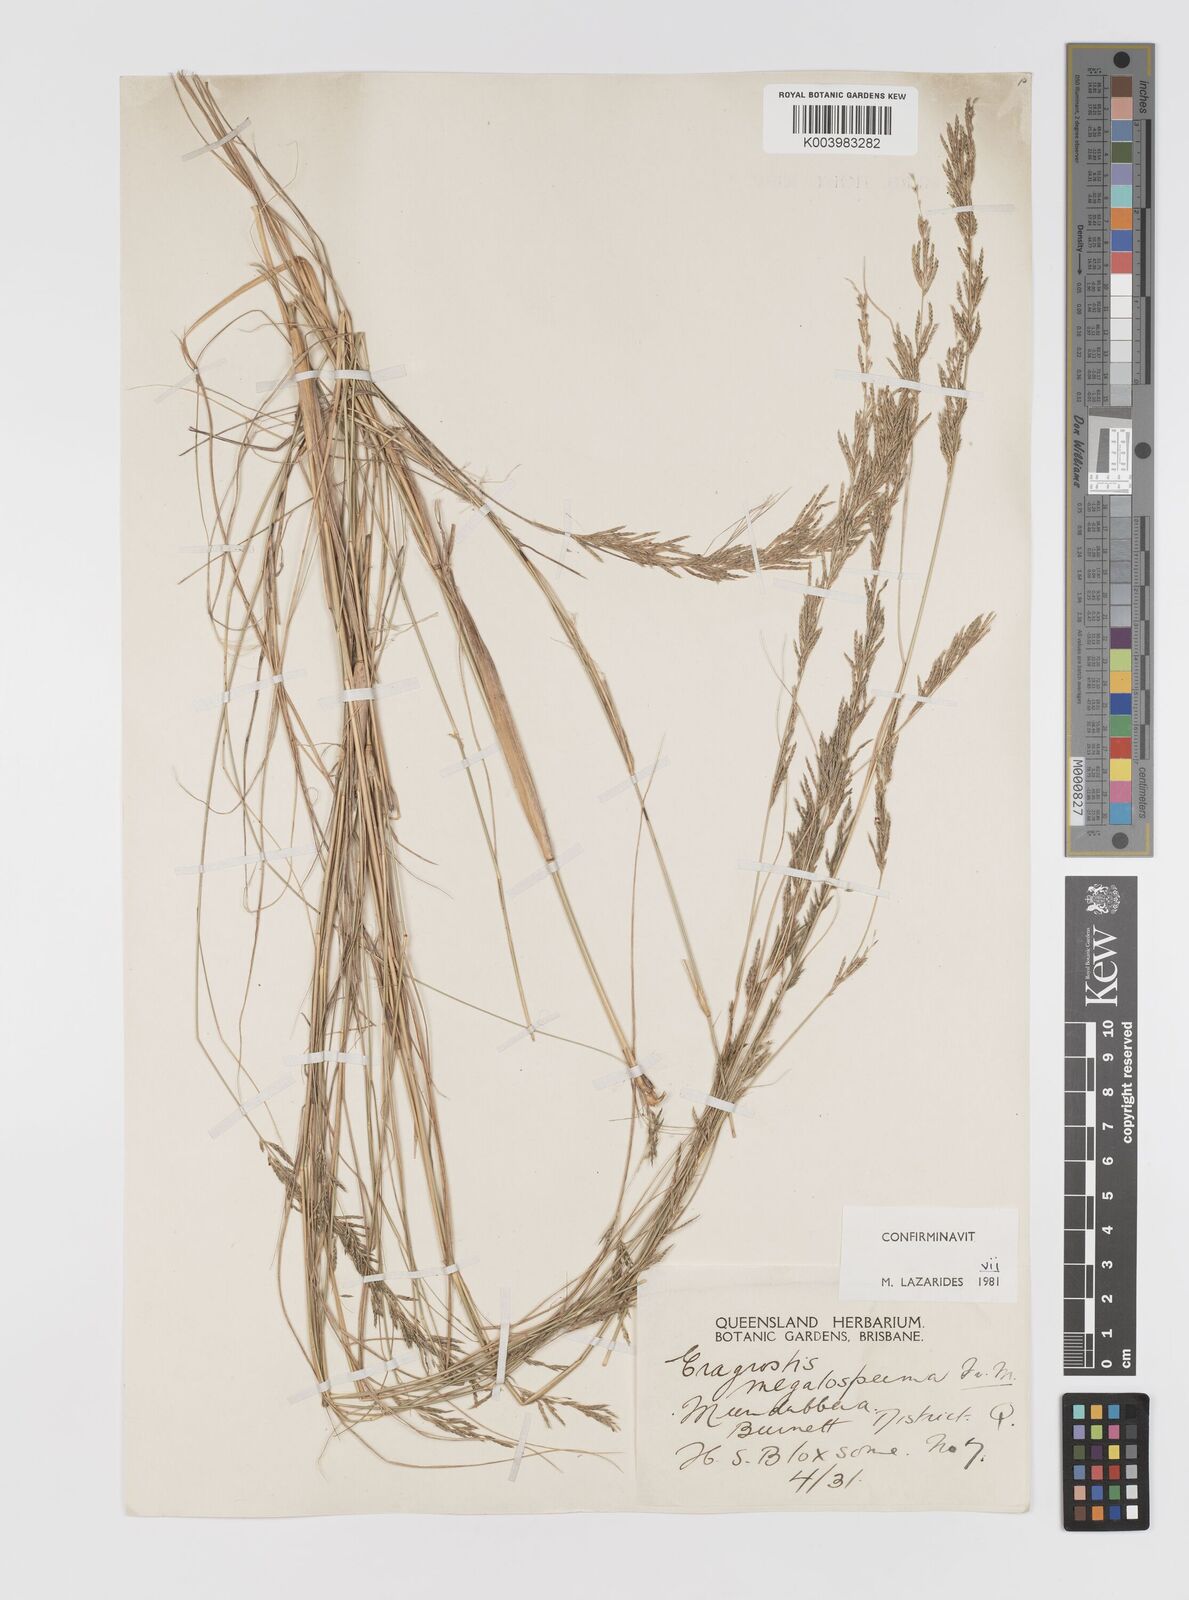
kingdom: Plantae
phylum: Tracheophyta
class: Liliopsida
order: Poales
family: Poaceae
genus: Sporobolus
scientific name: Sporobolus megalospermus
